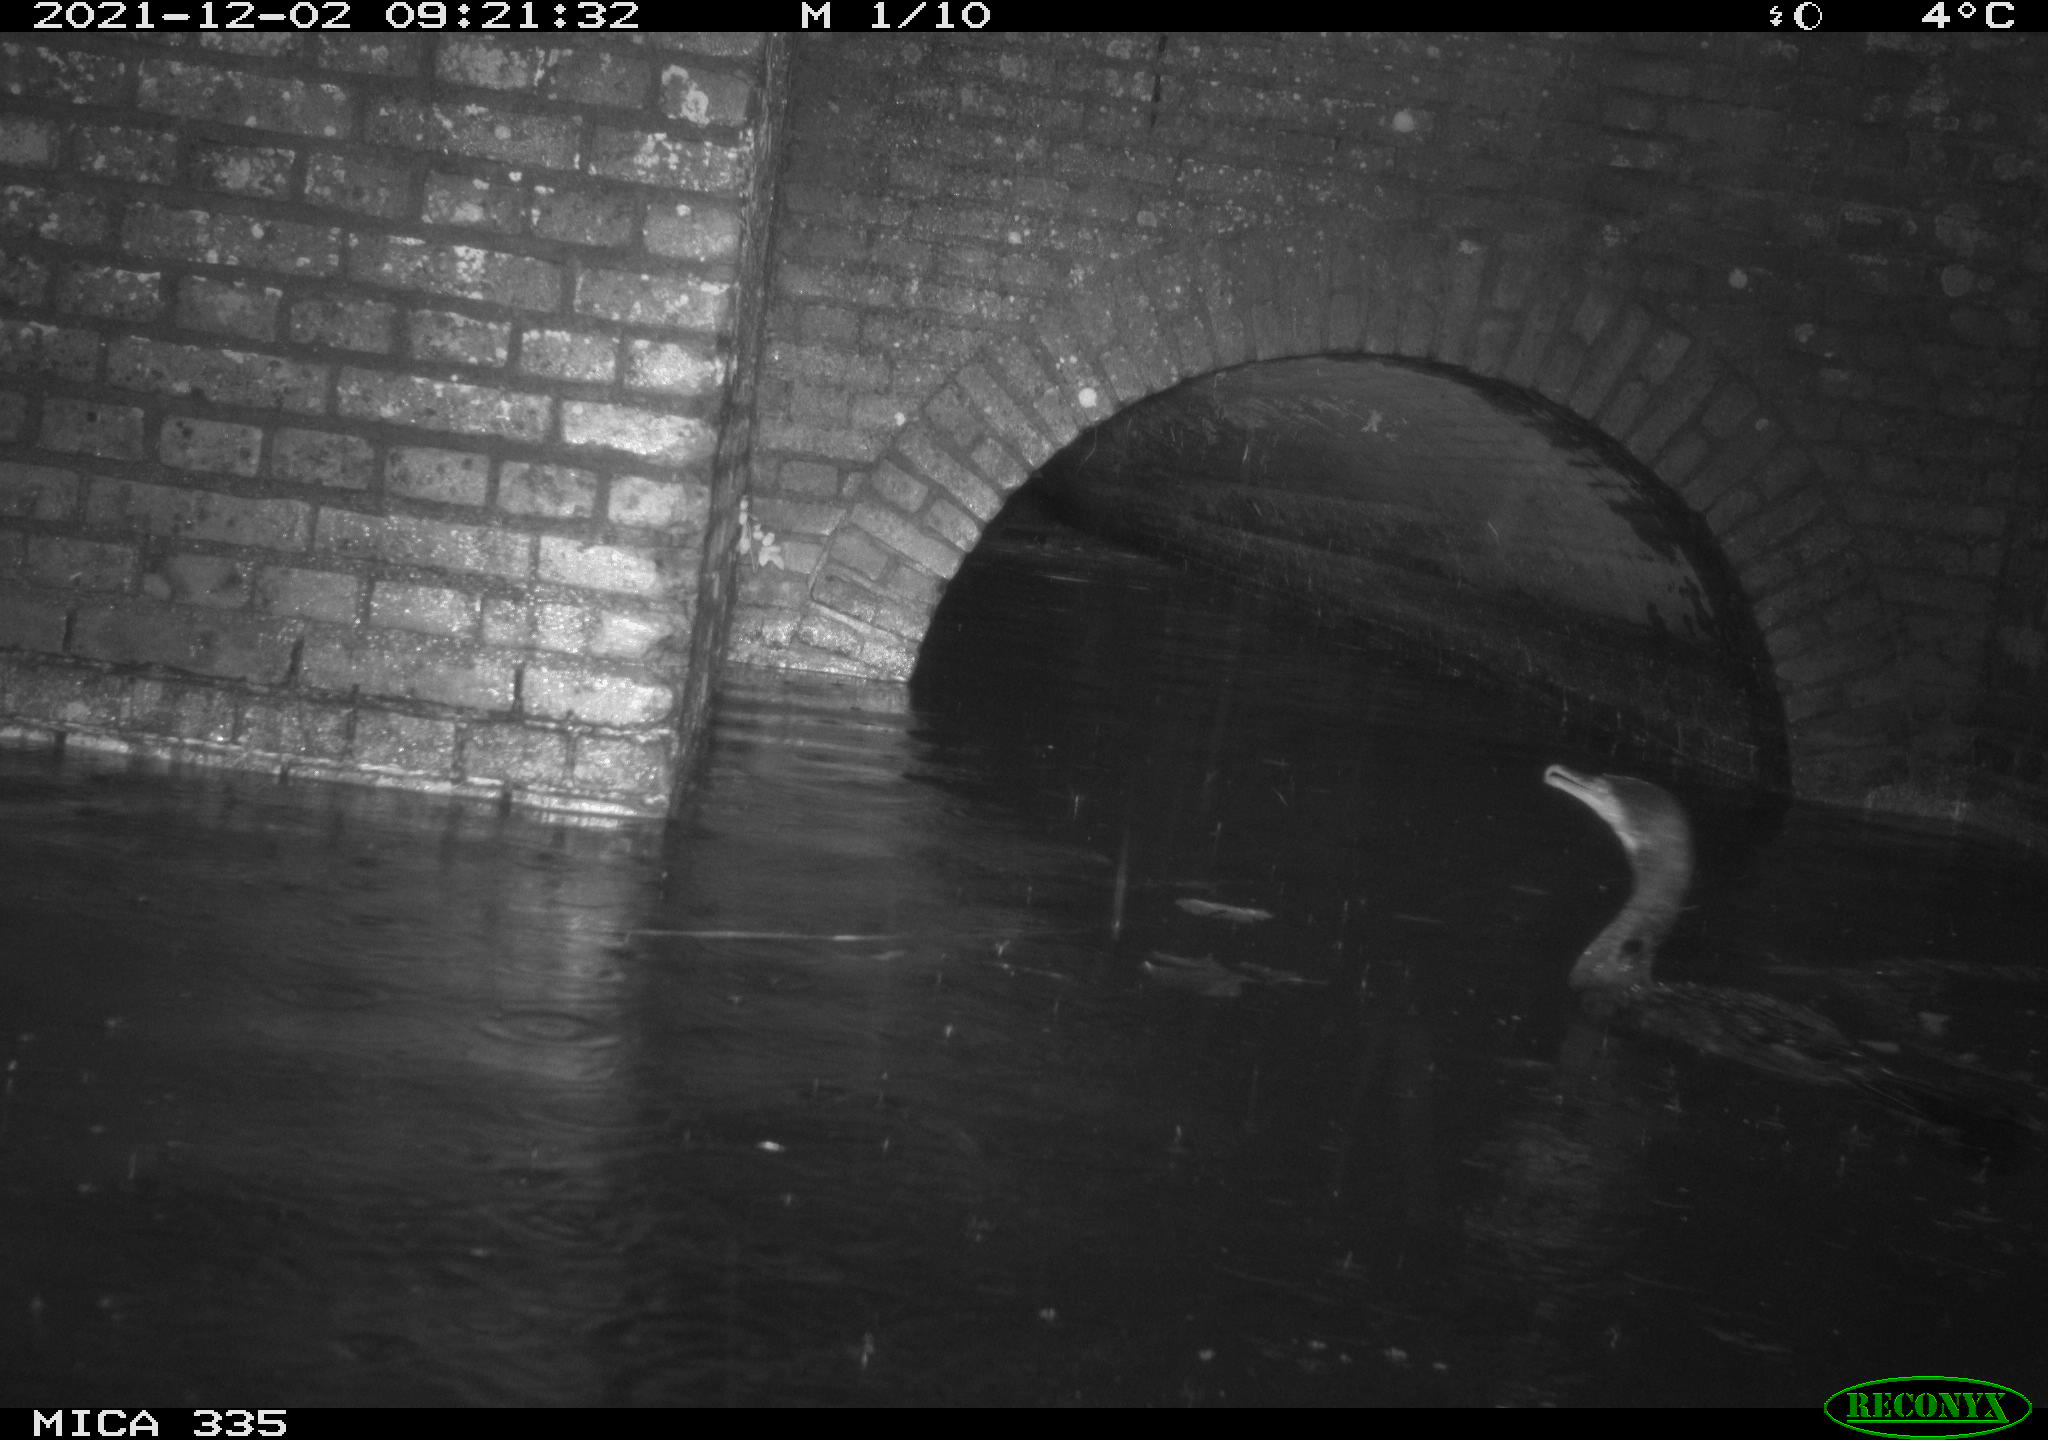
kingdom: Animalia
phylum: Chordata
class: Aves
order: Suliformes
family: Phalacrocoracidae
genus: Phalacrocorax
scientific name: Phalacrocorax carbo
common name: Great cormorant
